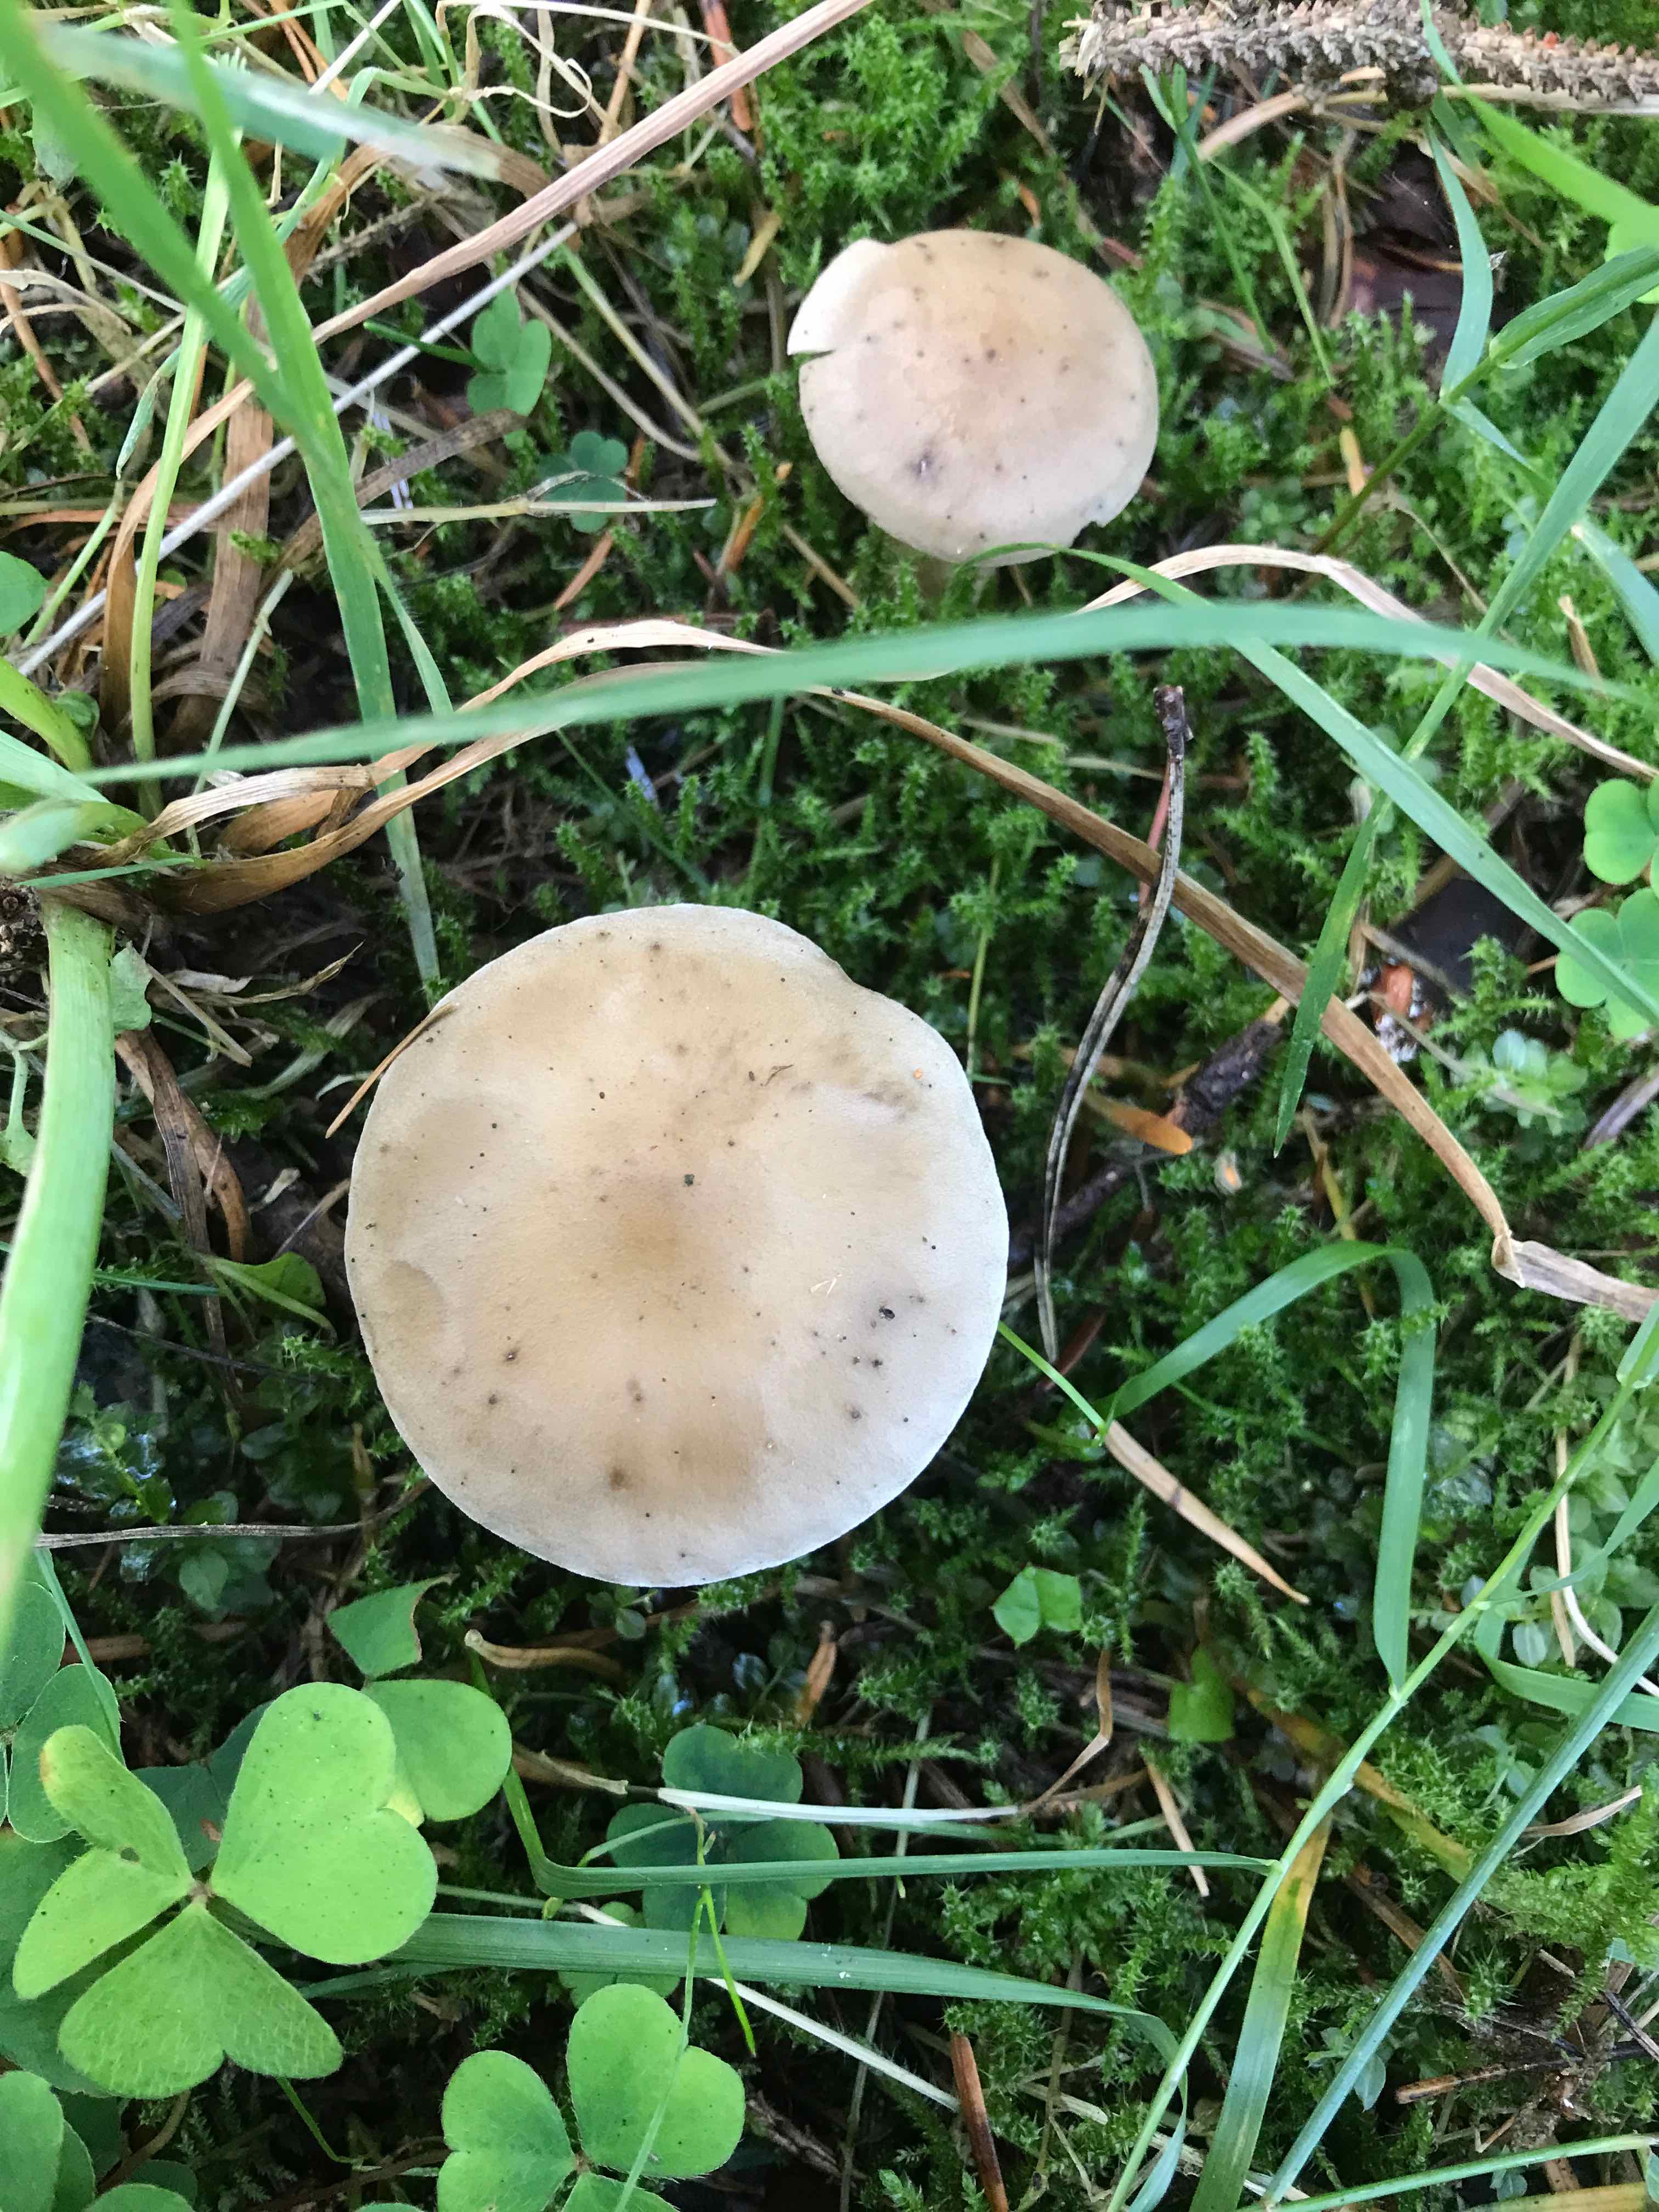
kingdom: Fungi
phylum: Basidiomycota
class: Agaricomycetes
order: Agaricales
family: Hygrophoraceae
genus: Ampulloclitocybe
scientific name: Ampulloclitocybe clavipes
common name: køllefod
